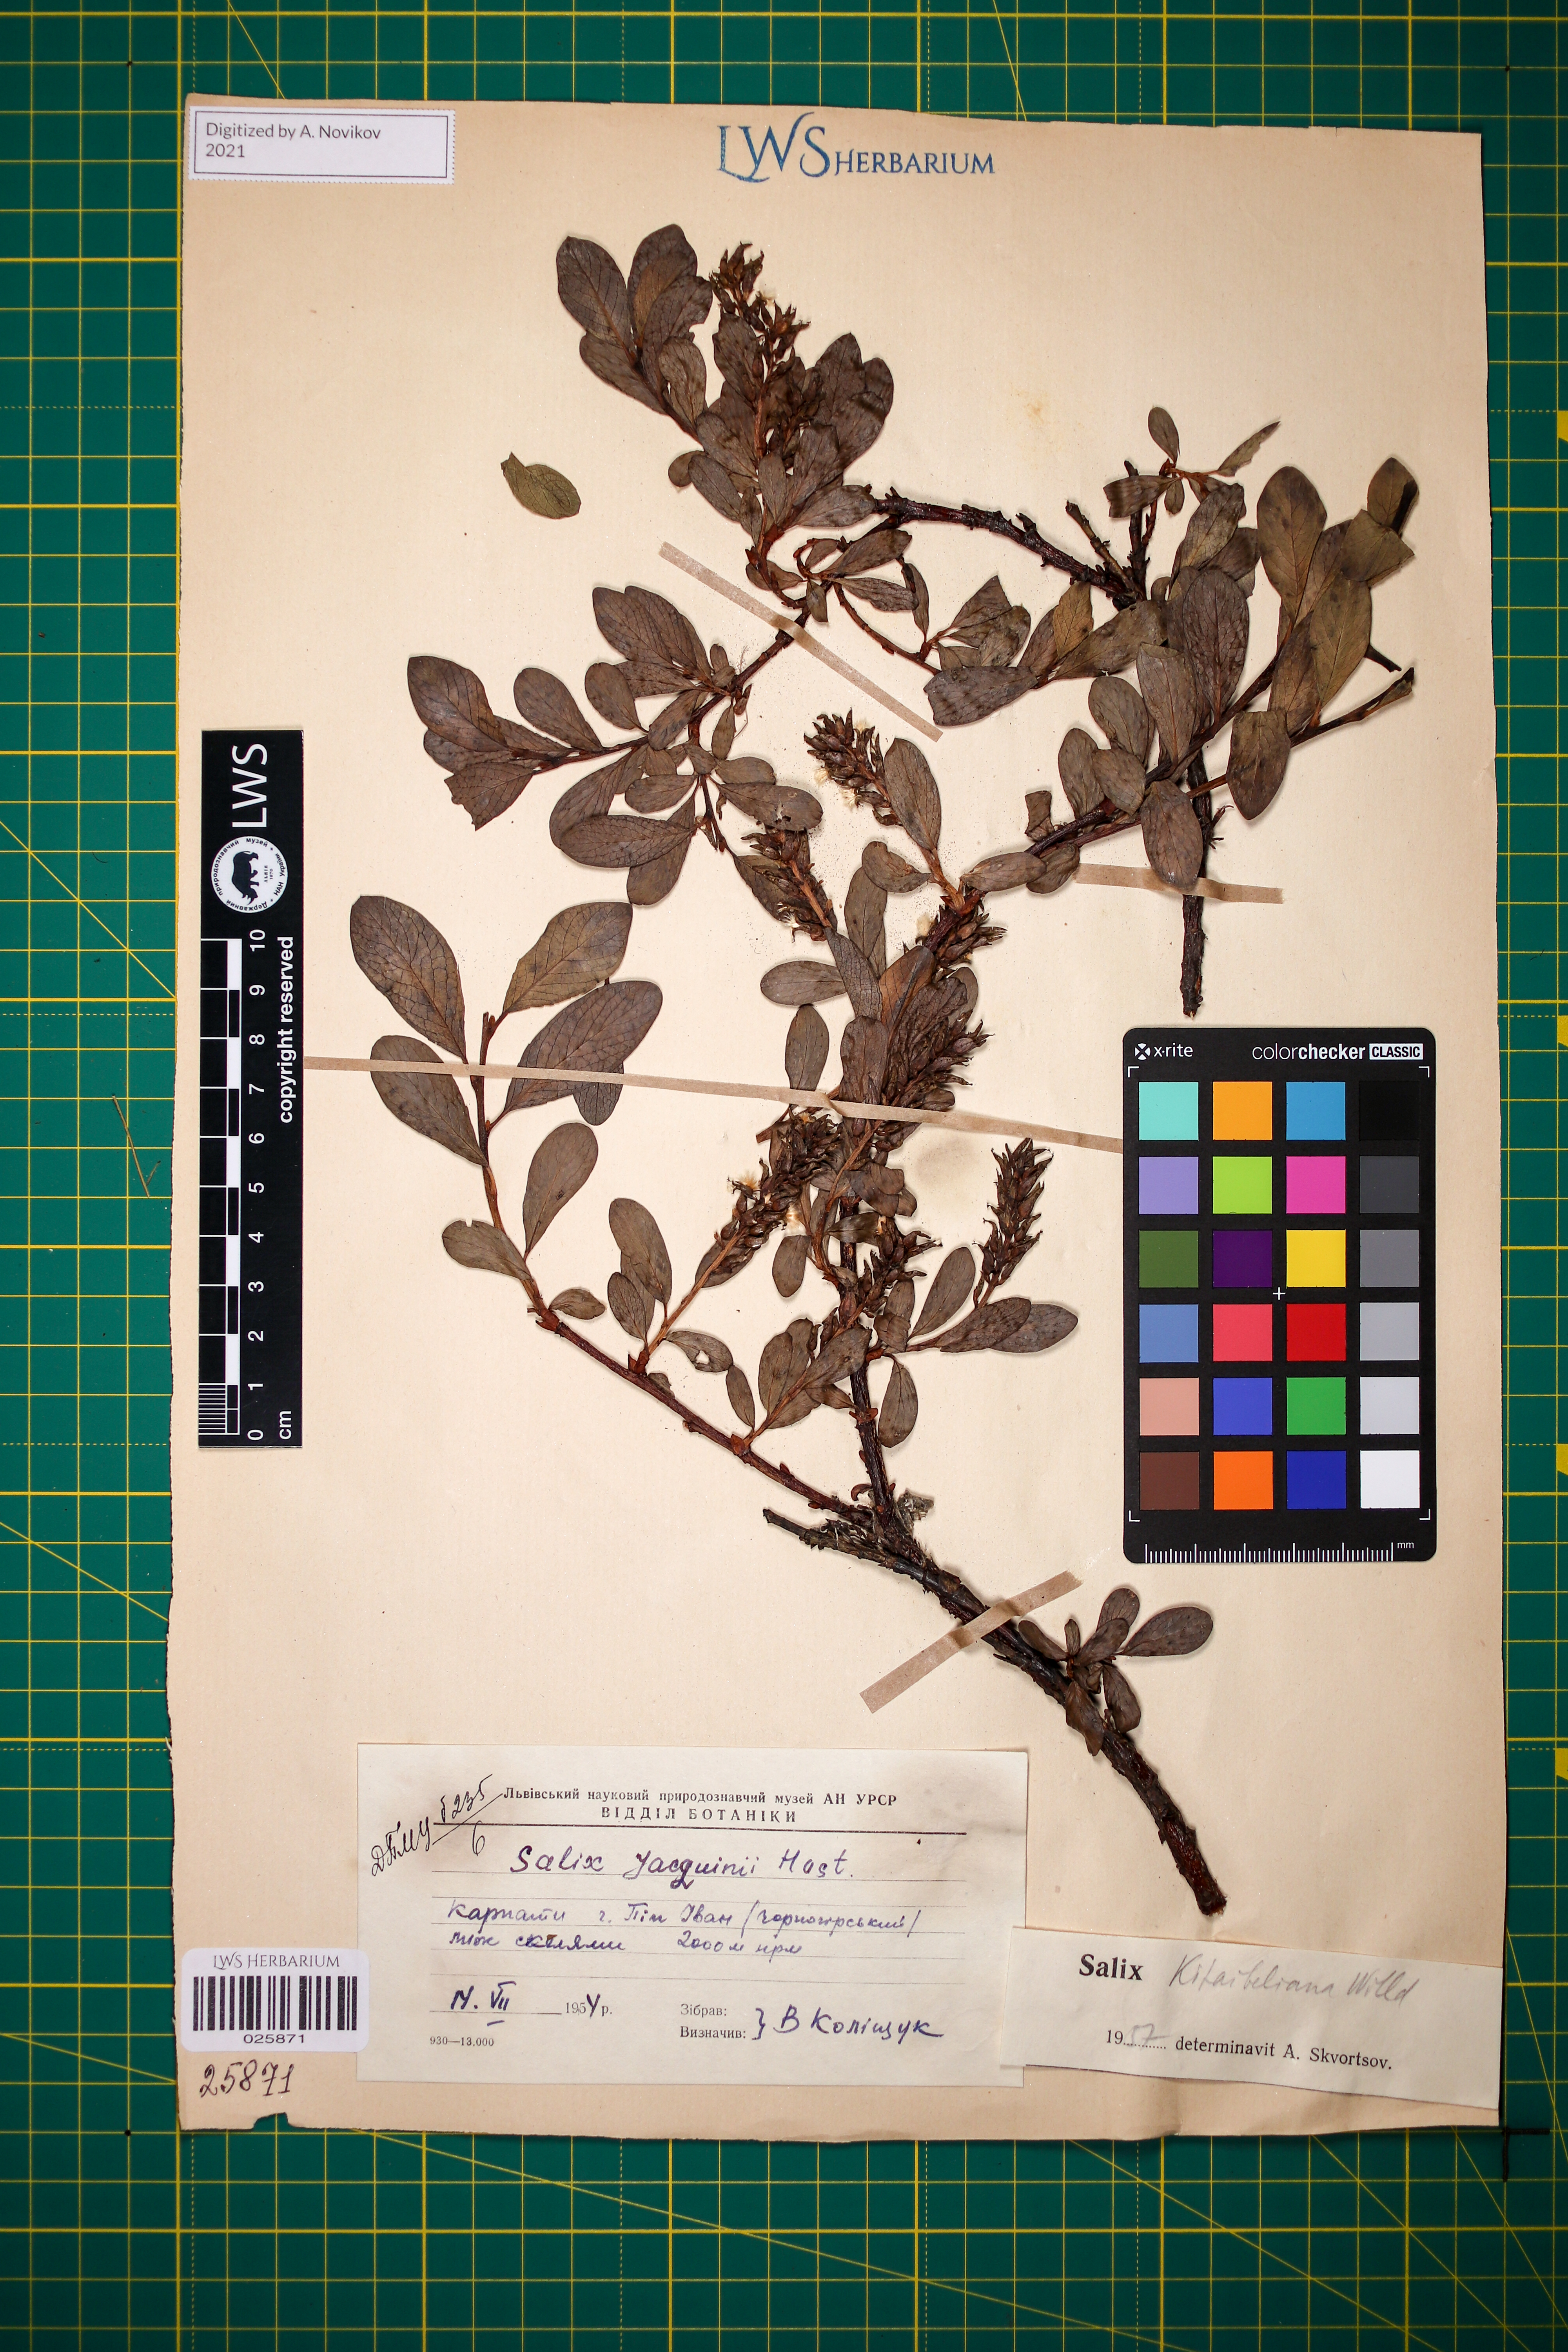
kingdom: Plantae
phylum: Tracheophyta
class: Magnoliopsida
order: Malpighiales
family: Salicaceae
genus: Salix
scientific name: Salix retusa
